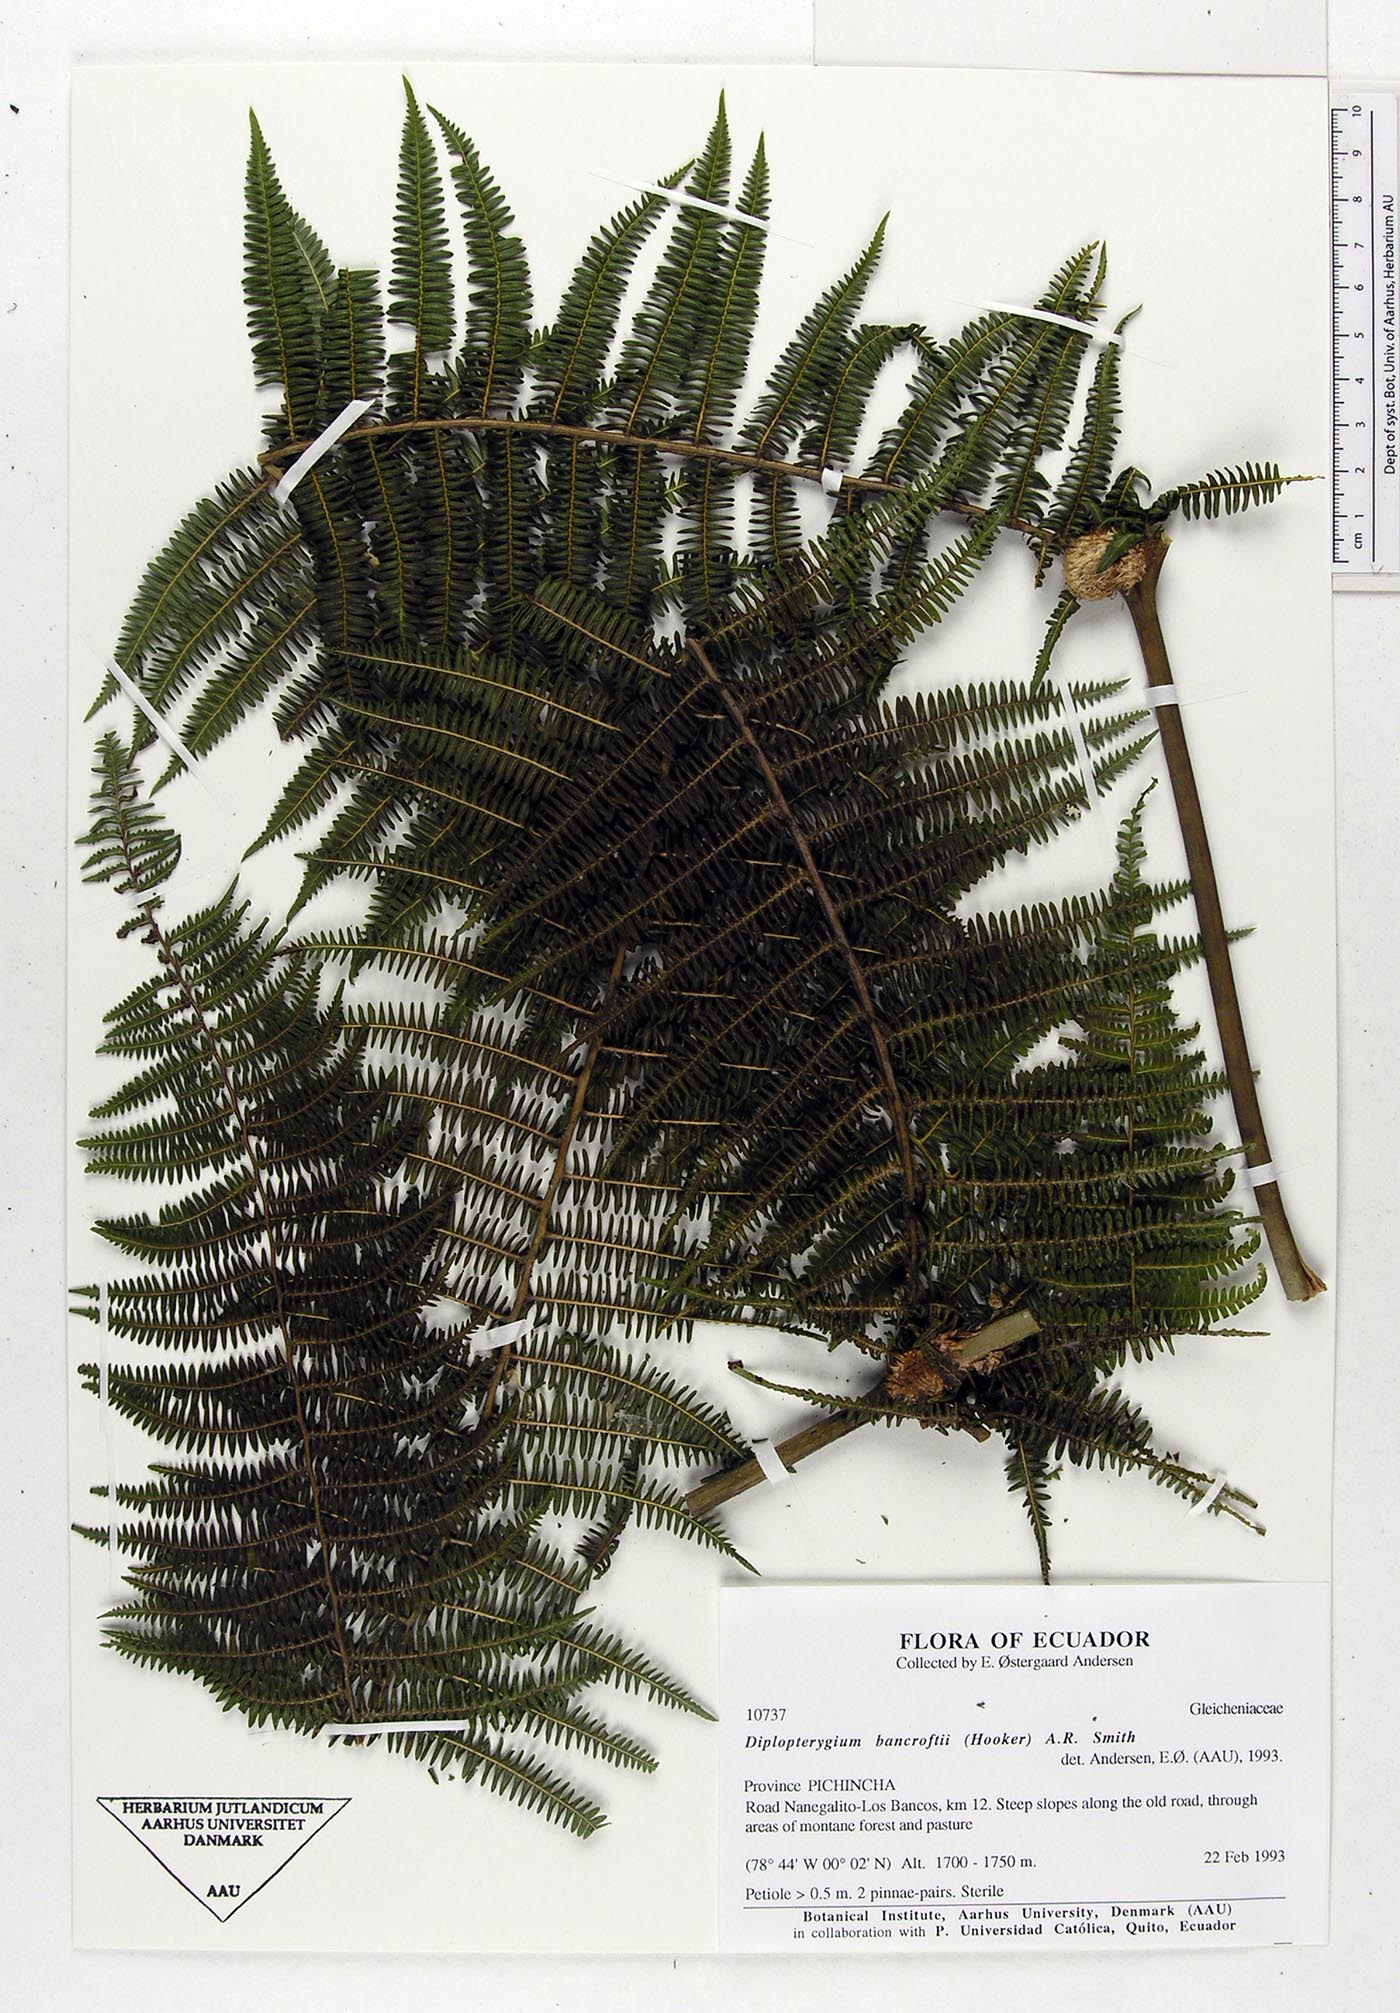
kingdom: Plantae
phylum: Tracheophyta
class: Polypodiopsida
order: Gleicheniales
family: Gleicheniaceae
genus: Diplopterygium
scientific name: Diplopterygium bancroftii
